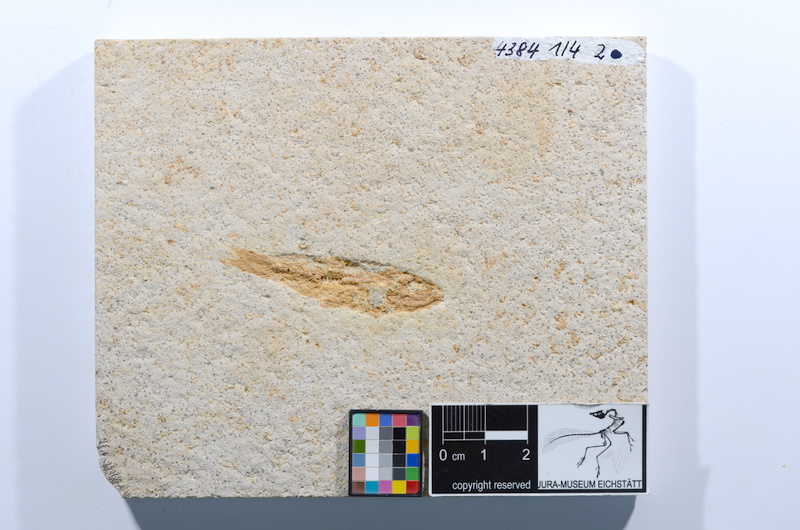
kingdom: Animalia
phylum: Chordata
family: Ascalaboidae
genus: Ascalabos
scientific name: Ascalabos voithii
